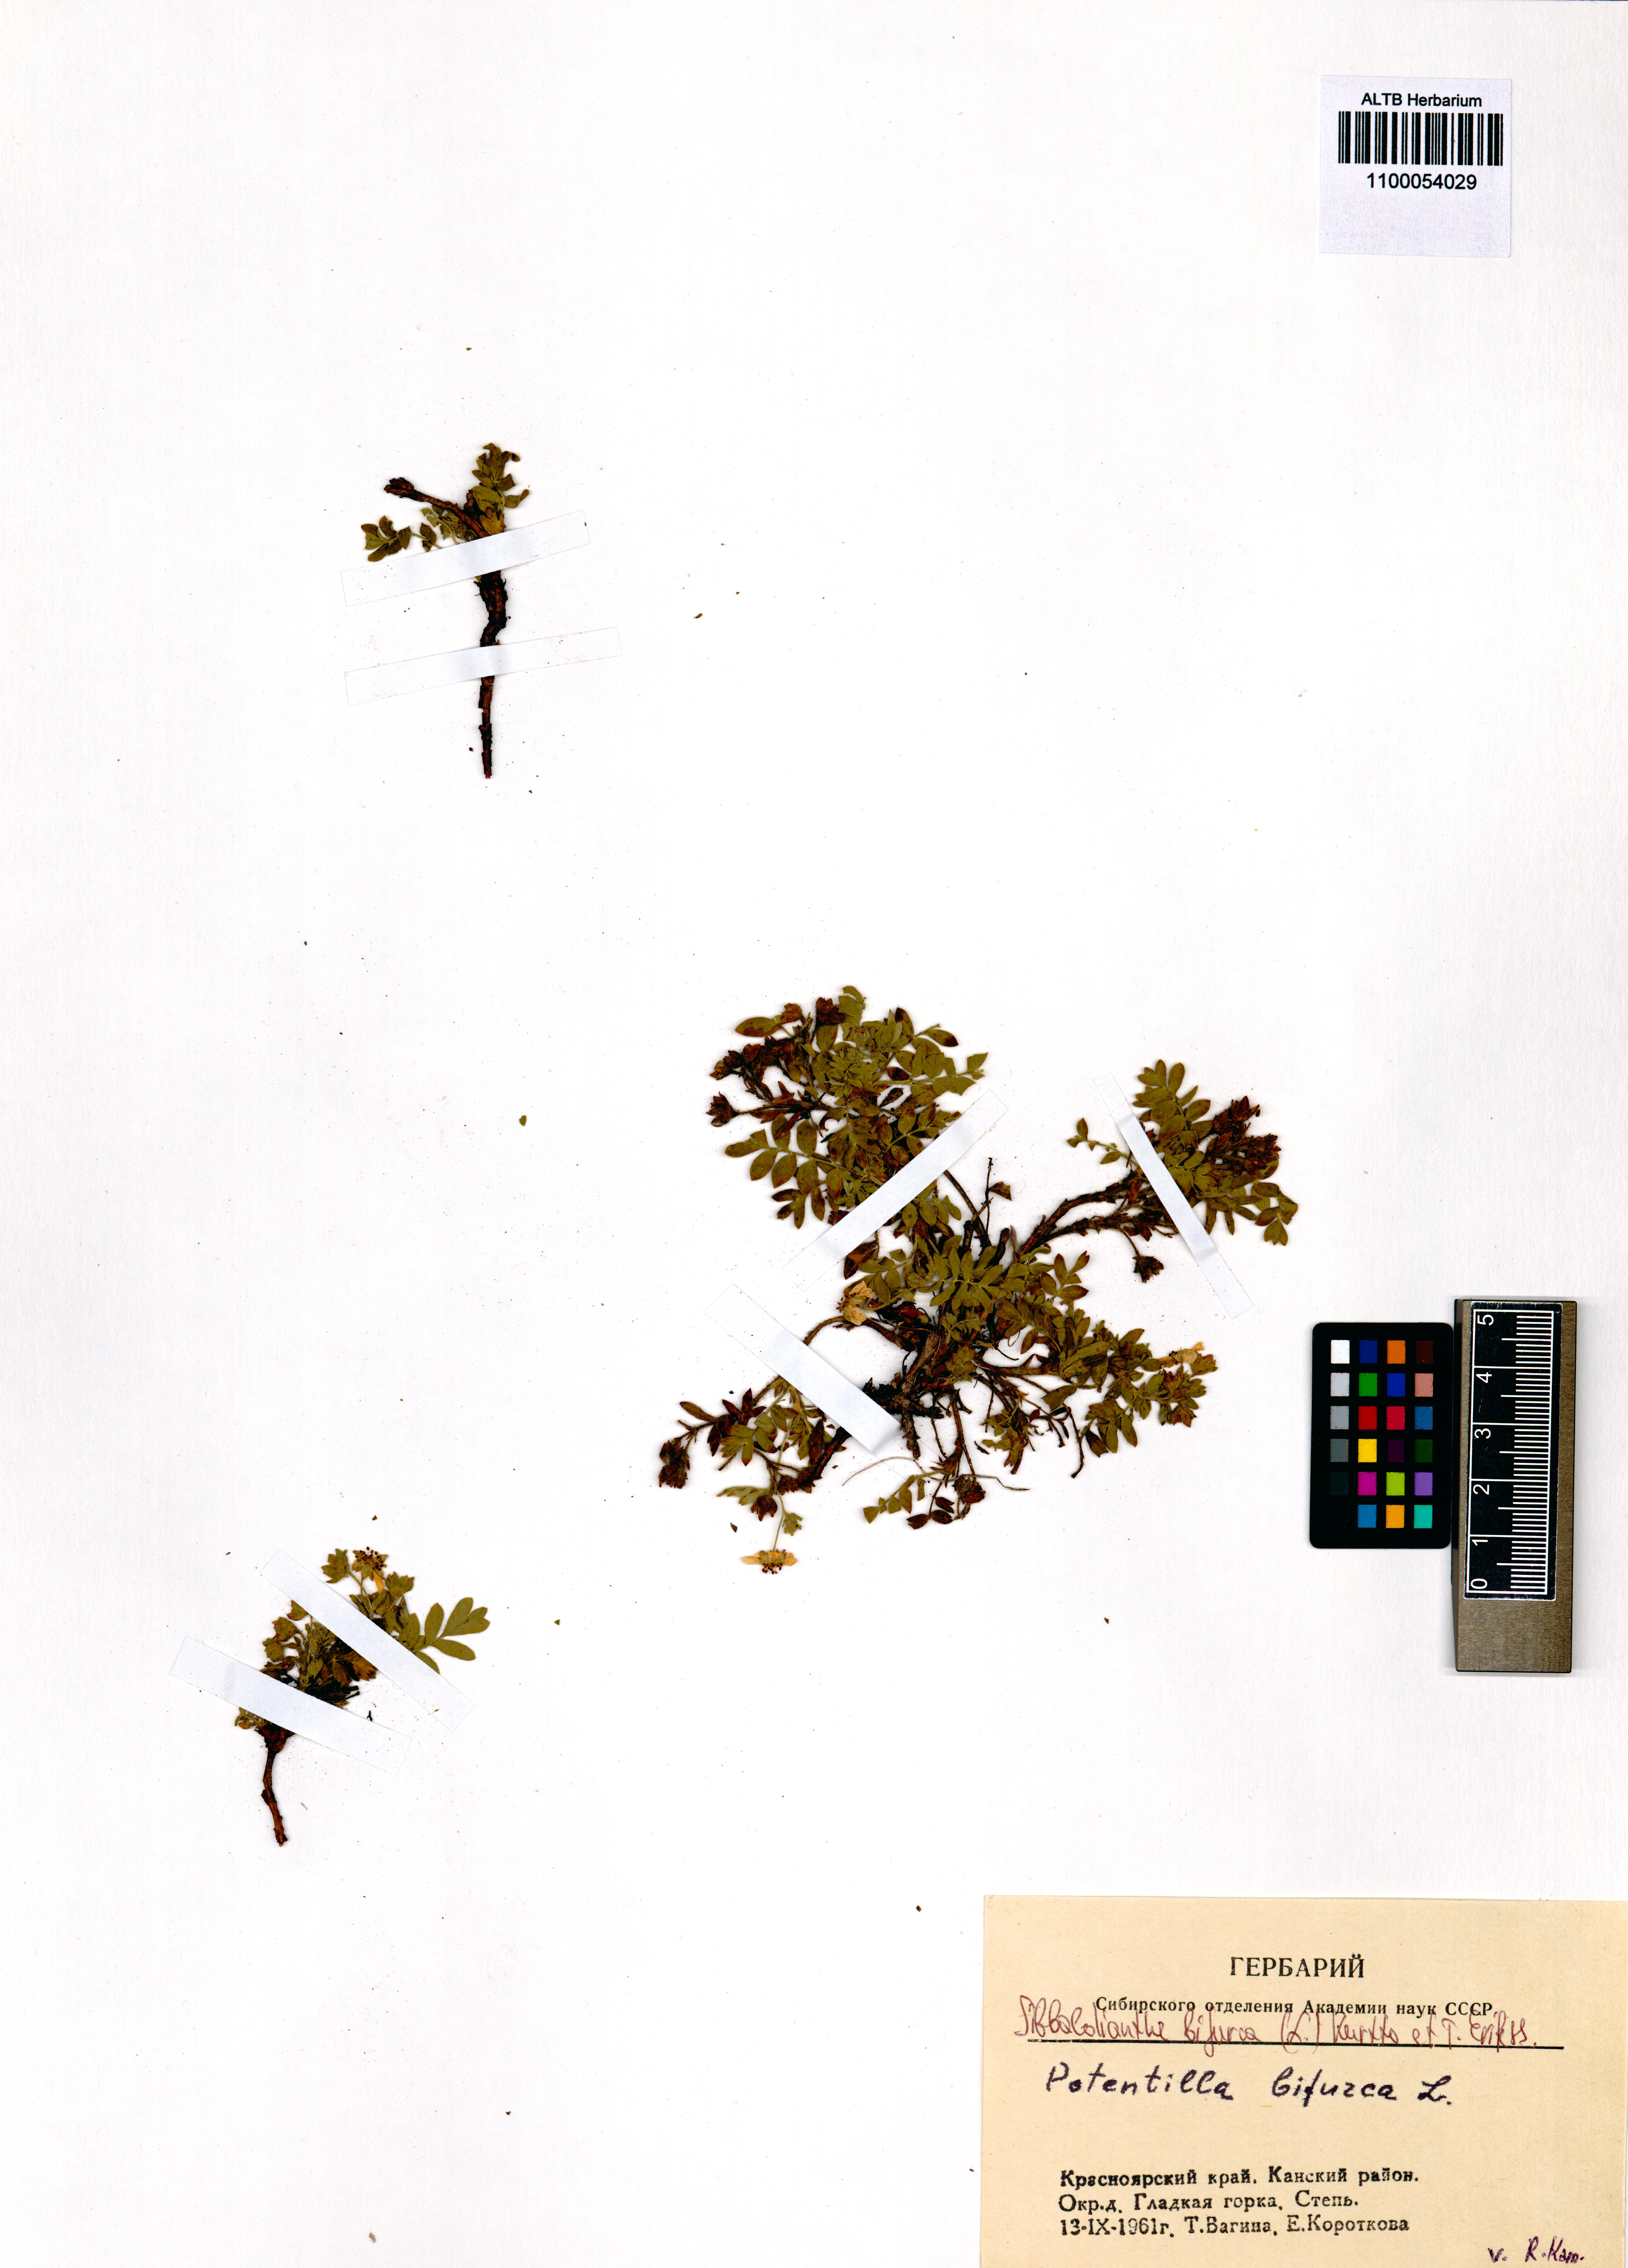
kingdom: Plantae
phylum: Tracheophyta
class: Magnoliopsida
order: Rosales
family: Rosaceae
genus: Sibbaldianthe
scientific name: Sibbaldianthe bifurca
